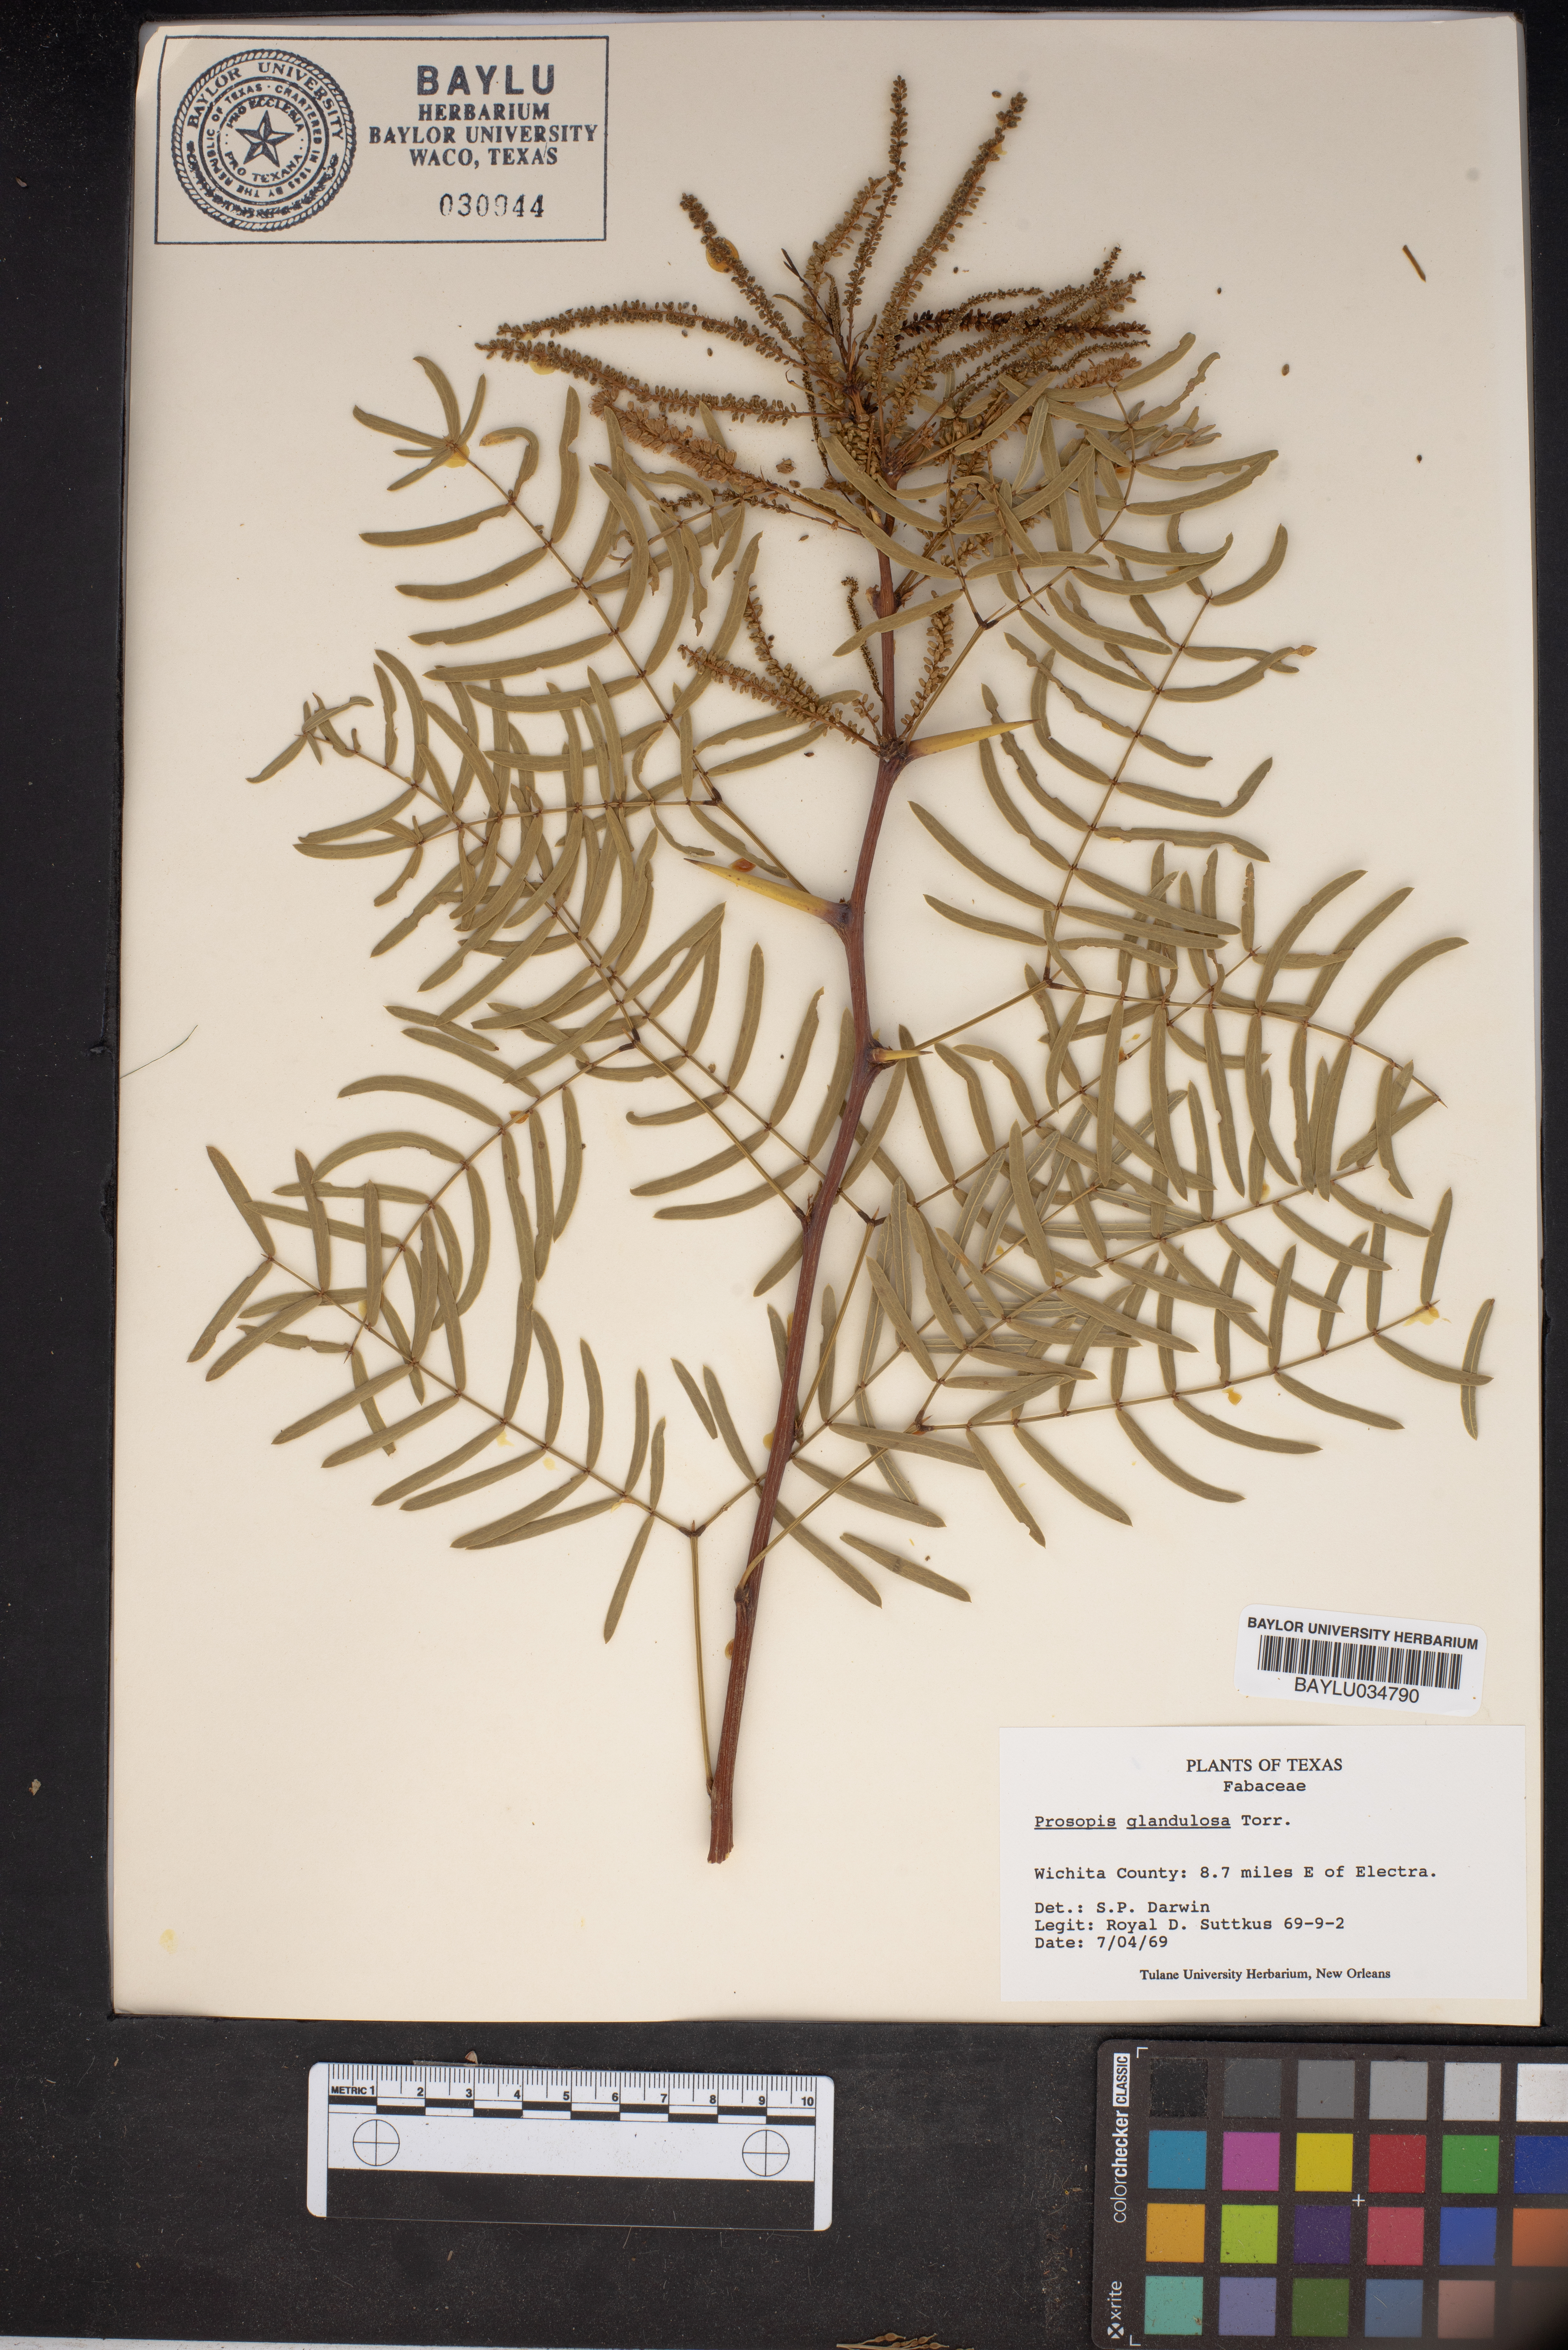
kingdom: Plantae
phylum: Tracheophyta
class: Magnoliopsida
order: Fabales
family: Fabaceae
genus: Prosopis
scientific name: Prosopis glandulosa
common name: Honey mesquite
